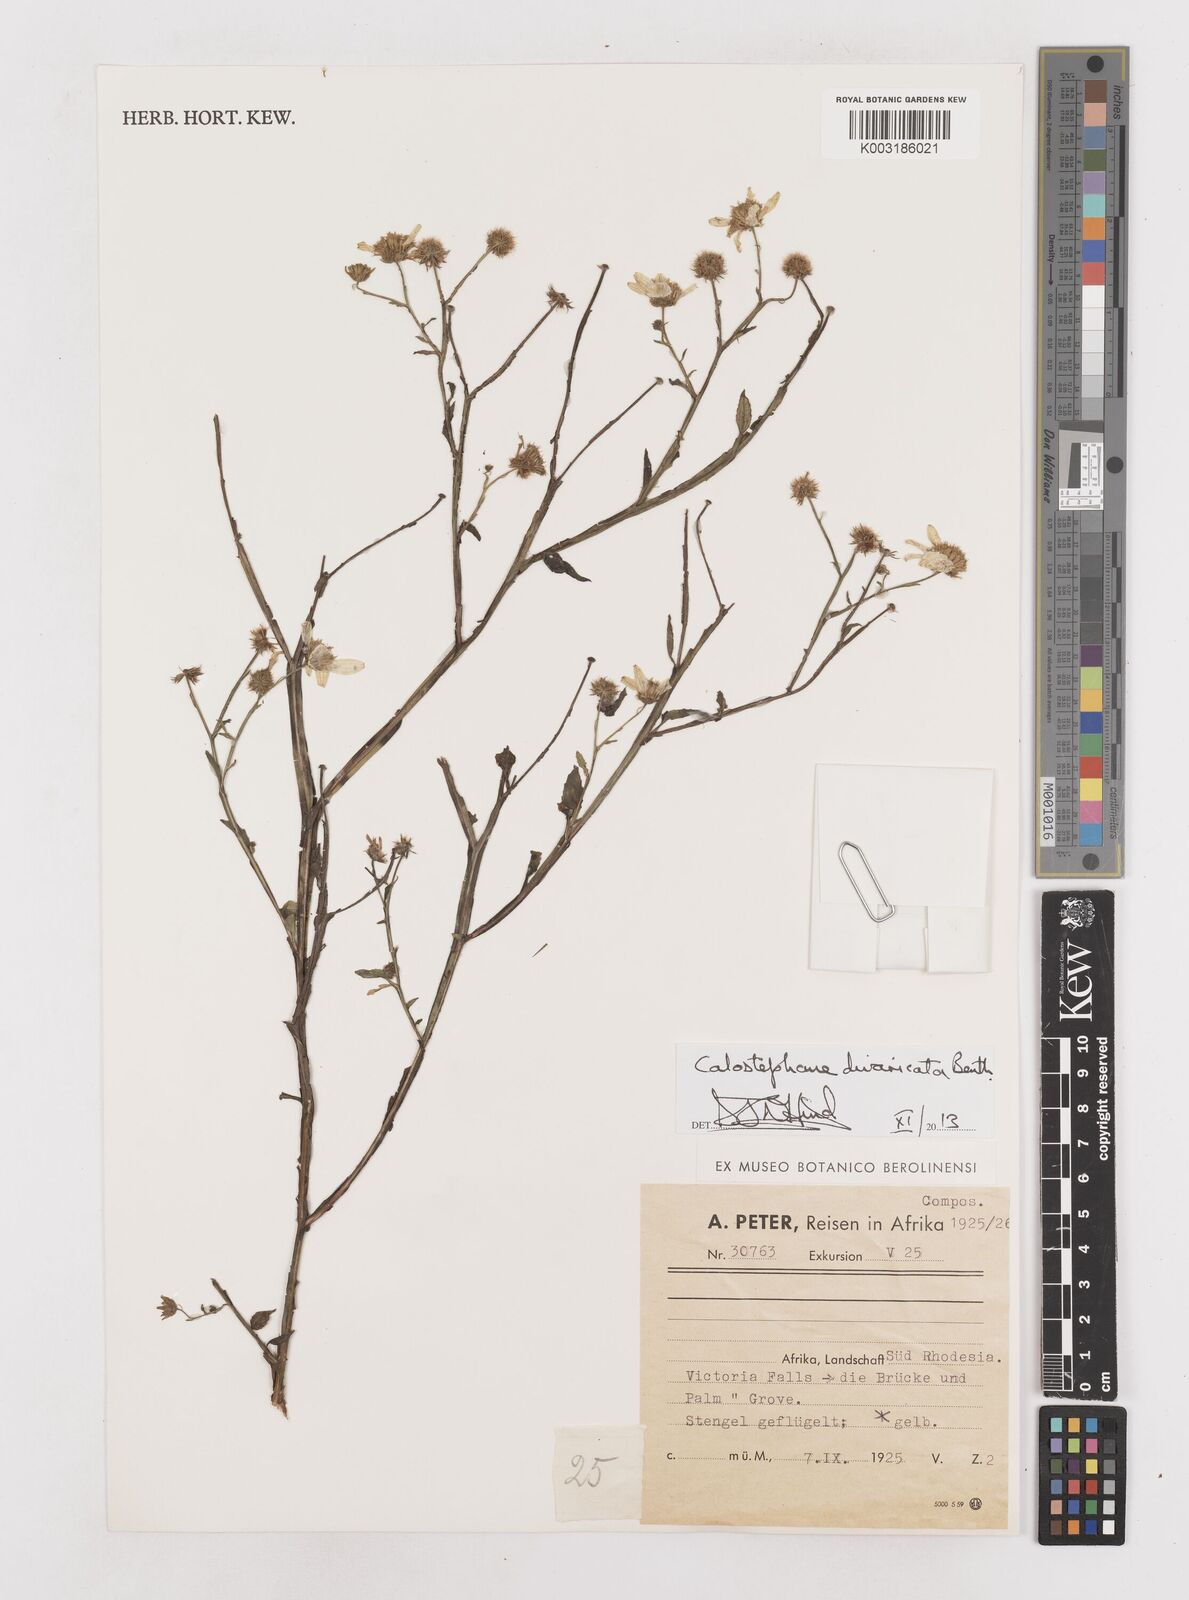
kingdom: Plantae
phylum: Tracheophyta
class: Magnoliopsida
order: Asterales
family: Asteraceae
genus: Calostephane
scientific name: Calostephane divaricata
